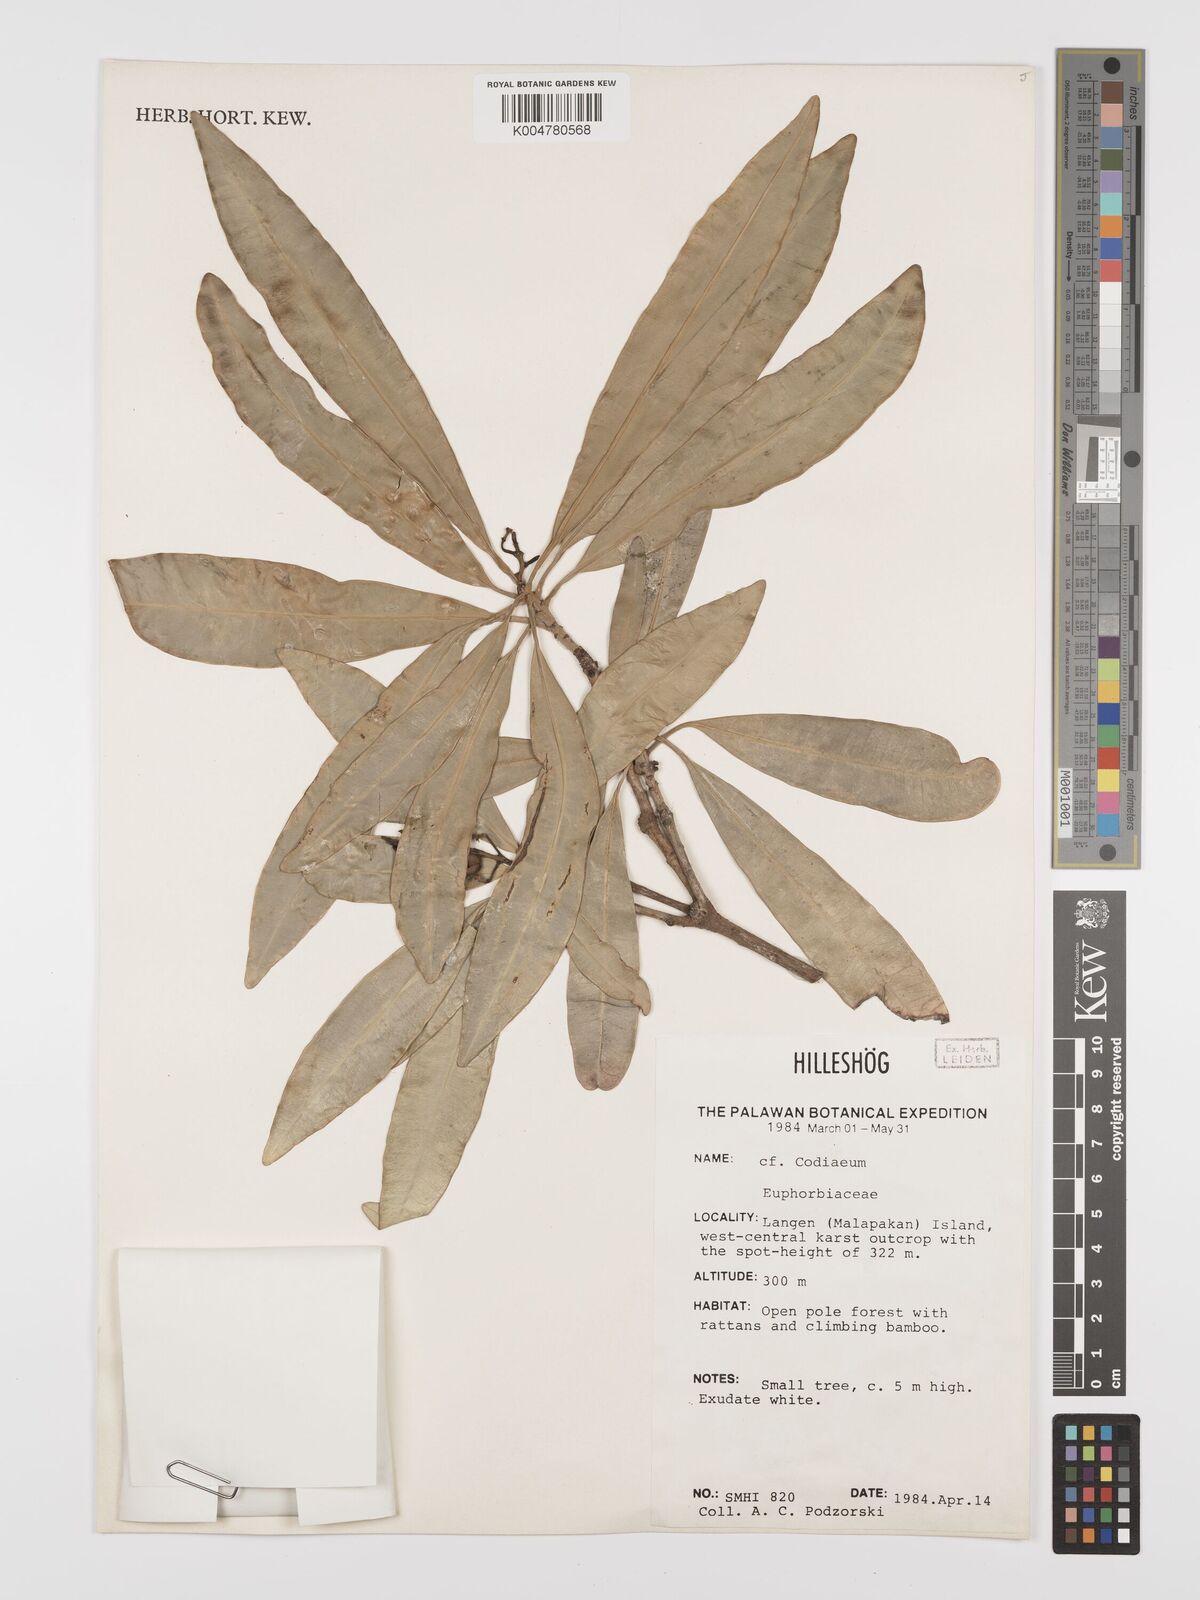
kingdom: Plantae
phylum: Tracheophyta
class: Magnoliopsida
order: Malpighiales
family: Euphorbiaceae
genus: Codiaeum
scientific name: Codiaeum
